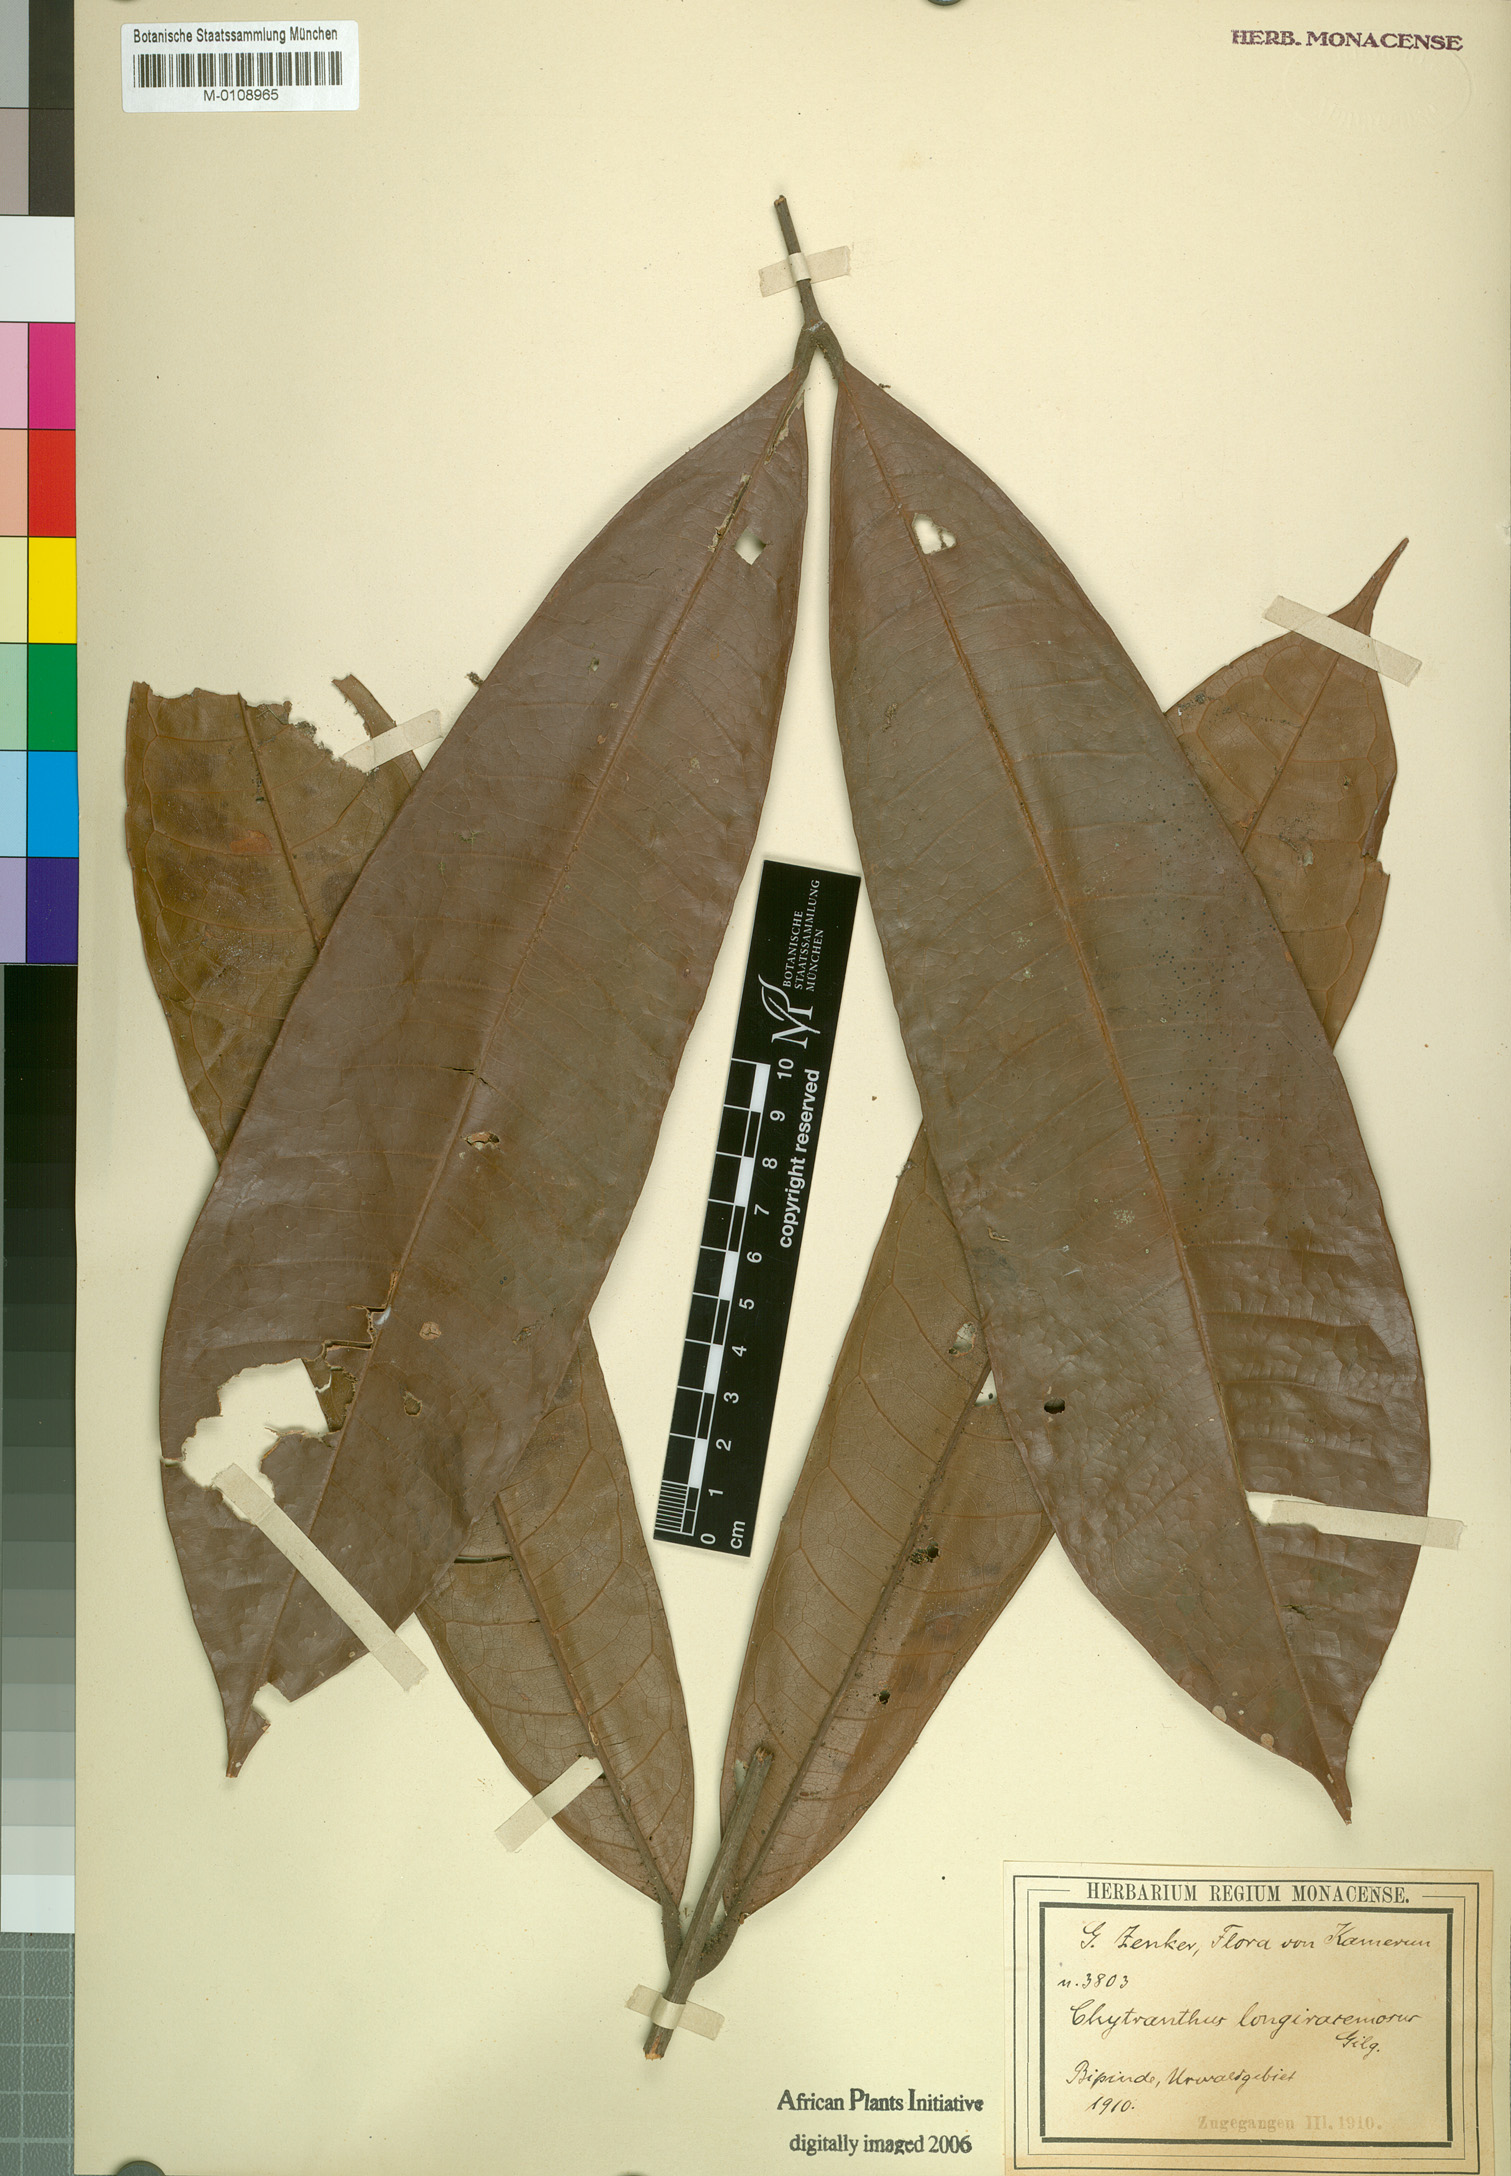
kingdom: Plantae
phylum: Tracheophyta
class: Magnoliopsida
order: Sapindales
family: Sapindaceae
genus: Chytranthus
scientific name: Chytranthus carneus
